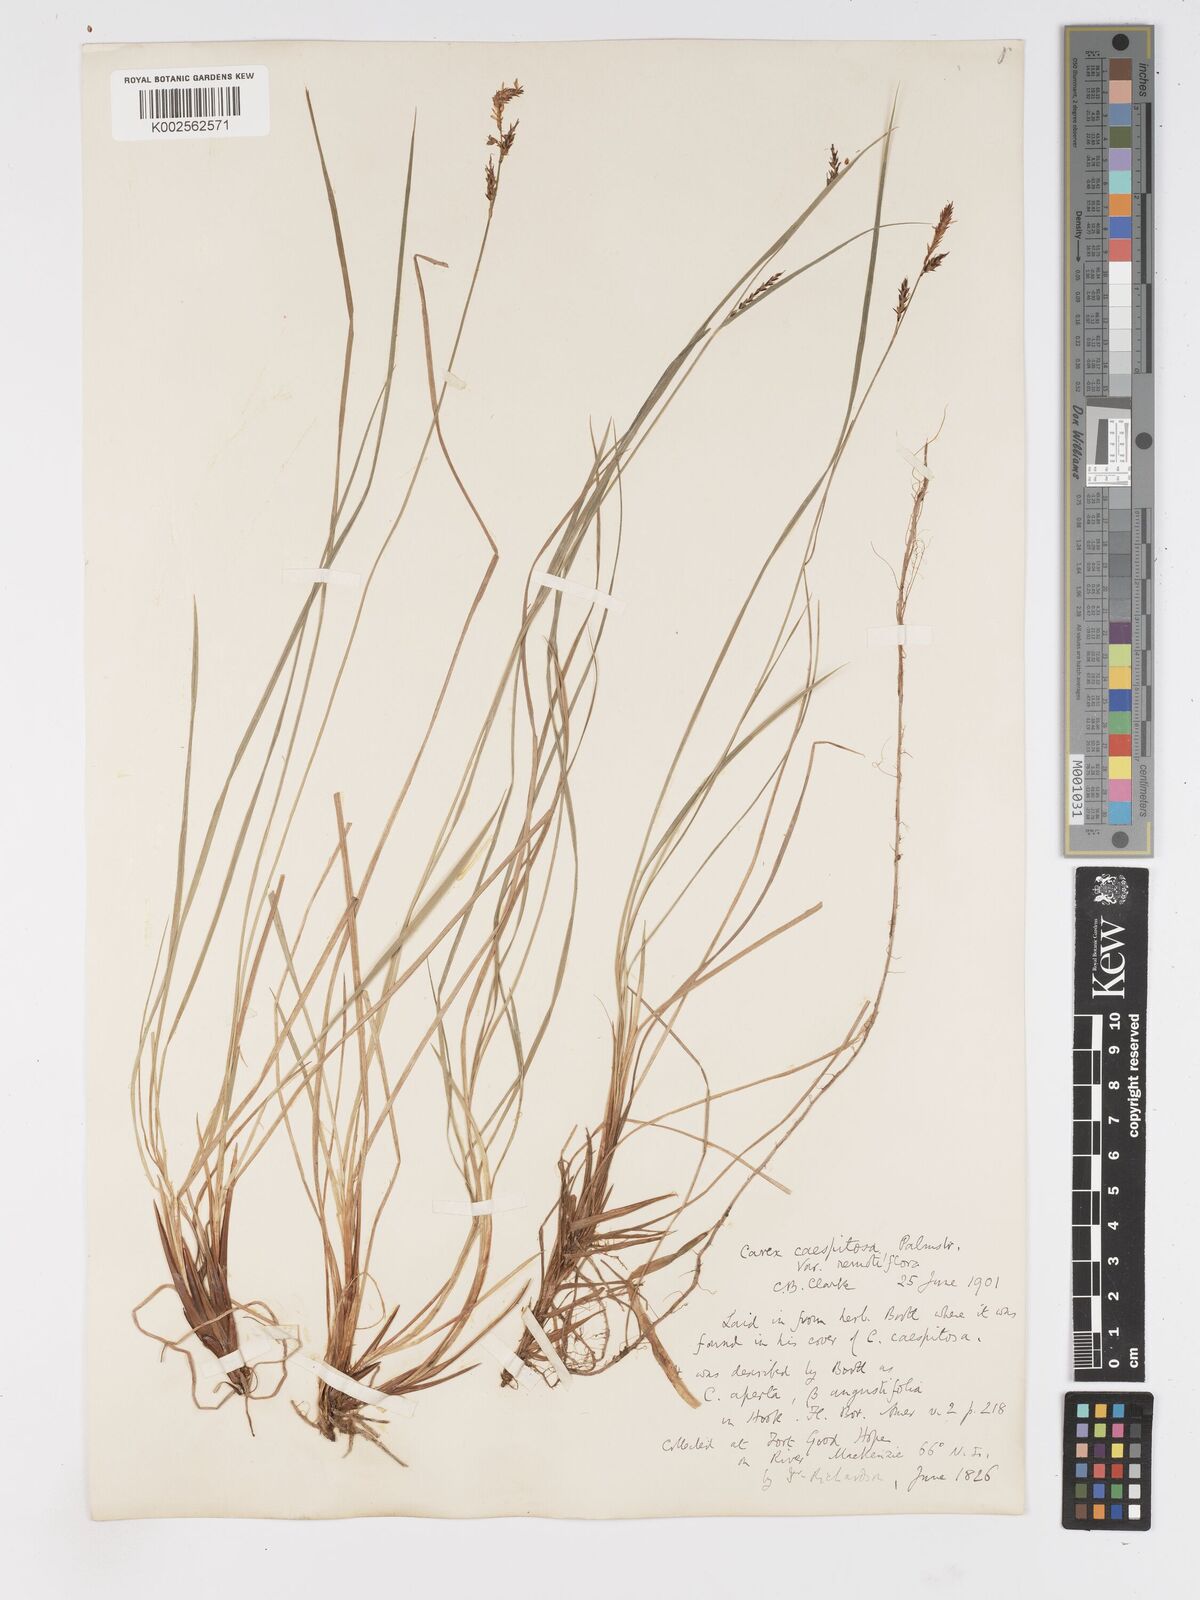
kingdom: Plantae
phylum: Tracheophyta
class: Liliopsida
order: Poales
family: Cyperaceae
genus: Carex
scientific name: Carex bigelowii
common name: Stiff sedge
